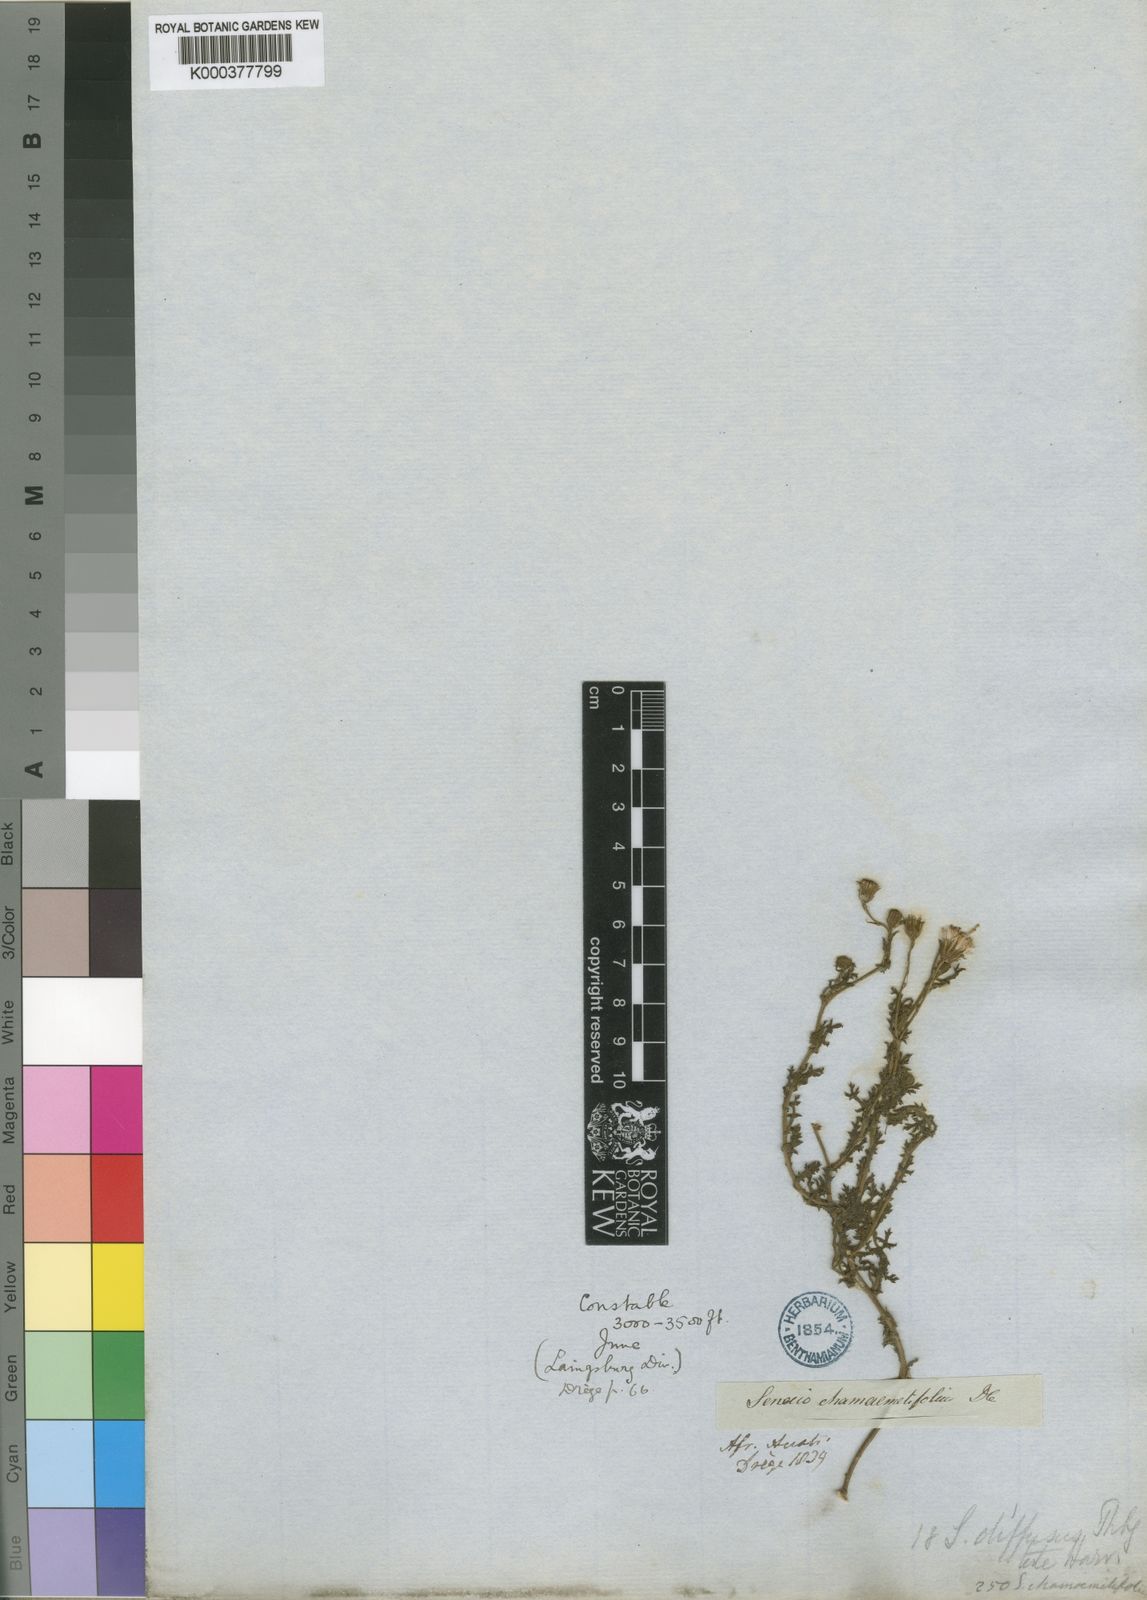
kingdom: Plantae
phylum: Tracheophyta
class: Magnoliopsida
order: Asterales
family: Asteraceae
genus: Senecio
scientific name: Senecio
